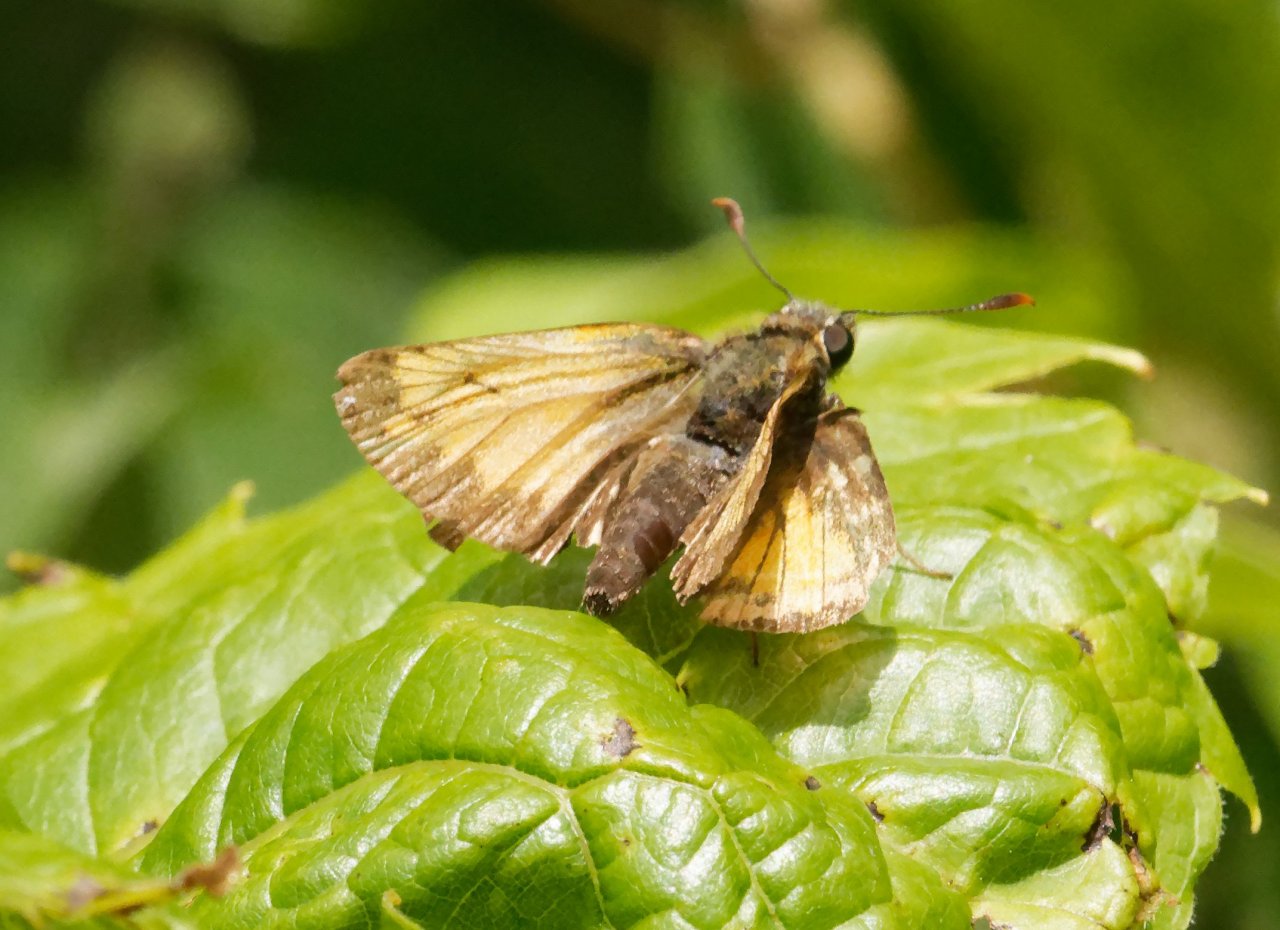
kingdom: Animalia
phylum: Arthropoda
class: Insecta
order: Lepidoptera
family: Hesperiidae
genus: Lon
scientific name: Lon hobomok
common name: Hobomok Skipper
